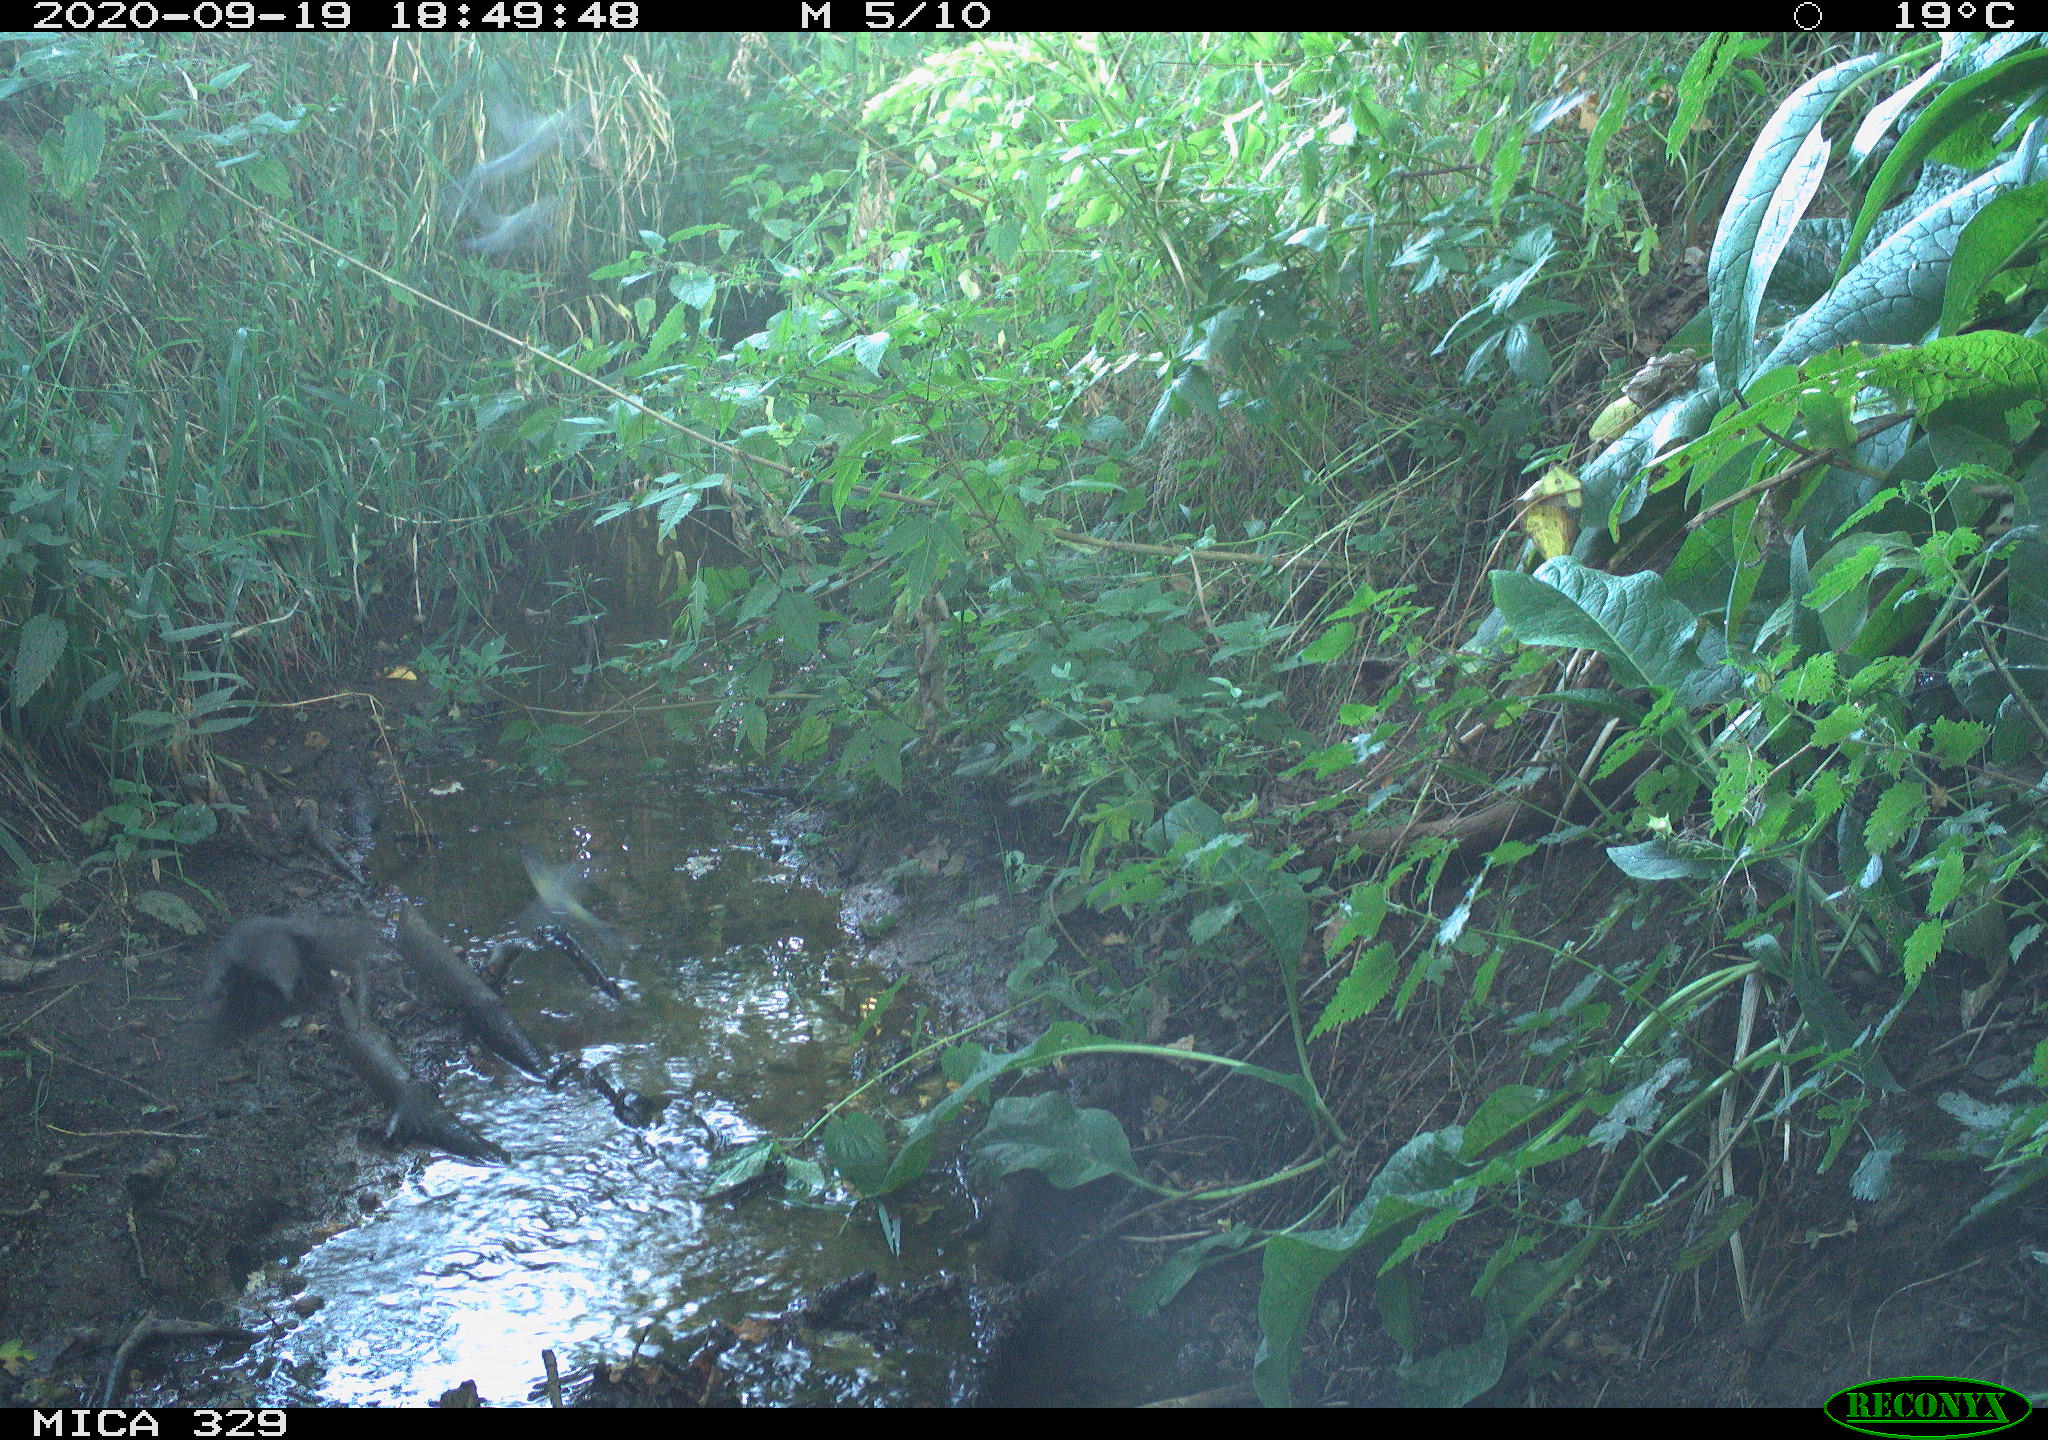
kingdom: Animalia
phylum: Chordata
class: Aves
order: Passeriformes
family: Turdidae
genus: Turdus
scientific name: Turdus philomelos
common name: Song thrush
